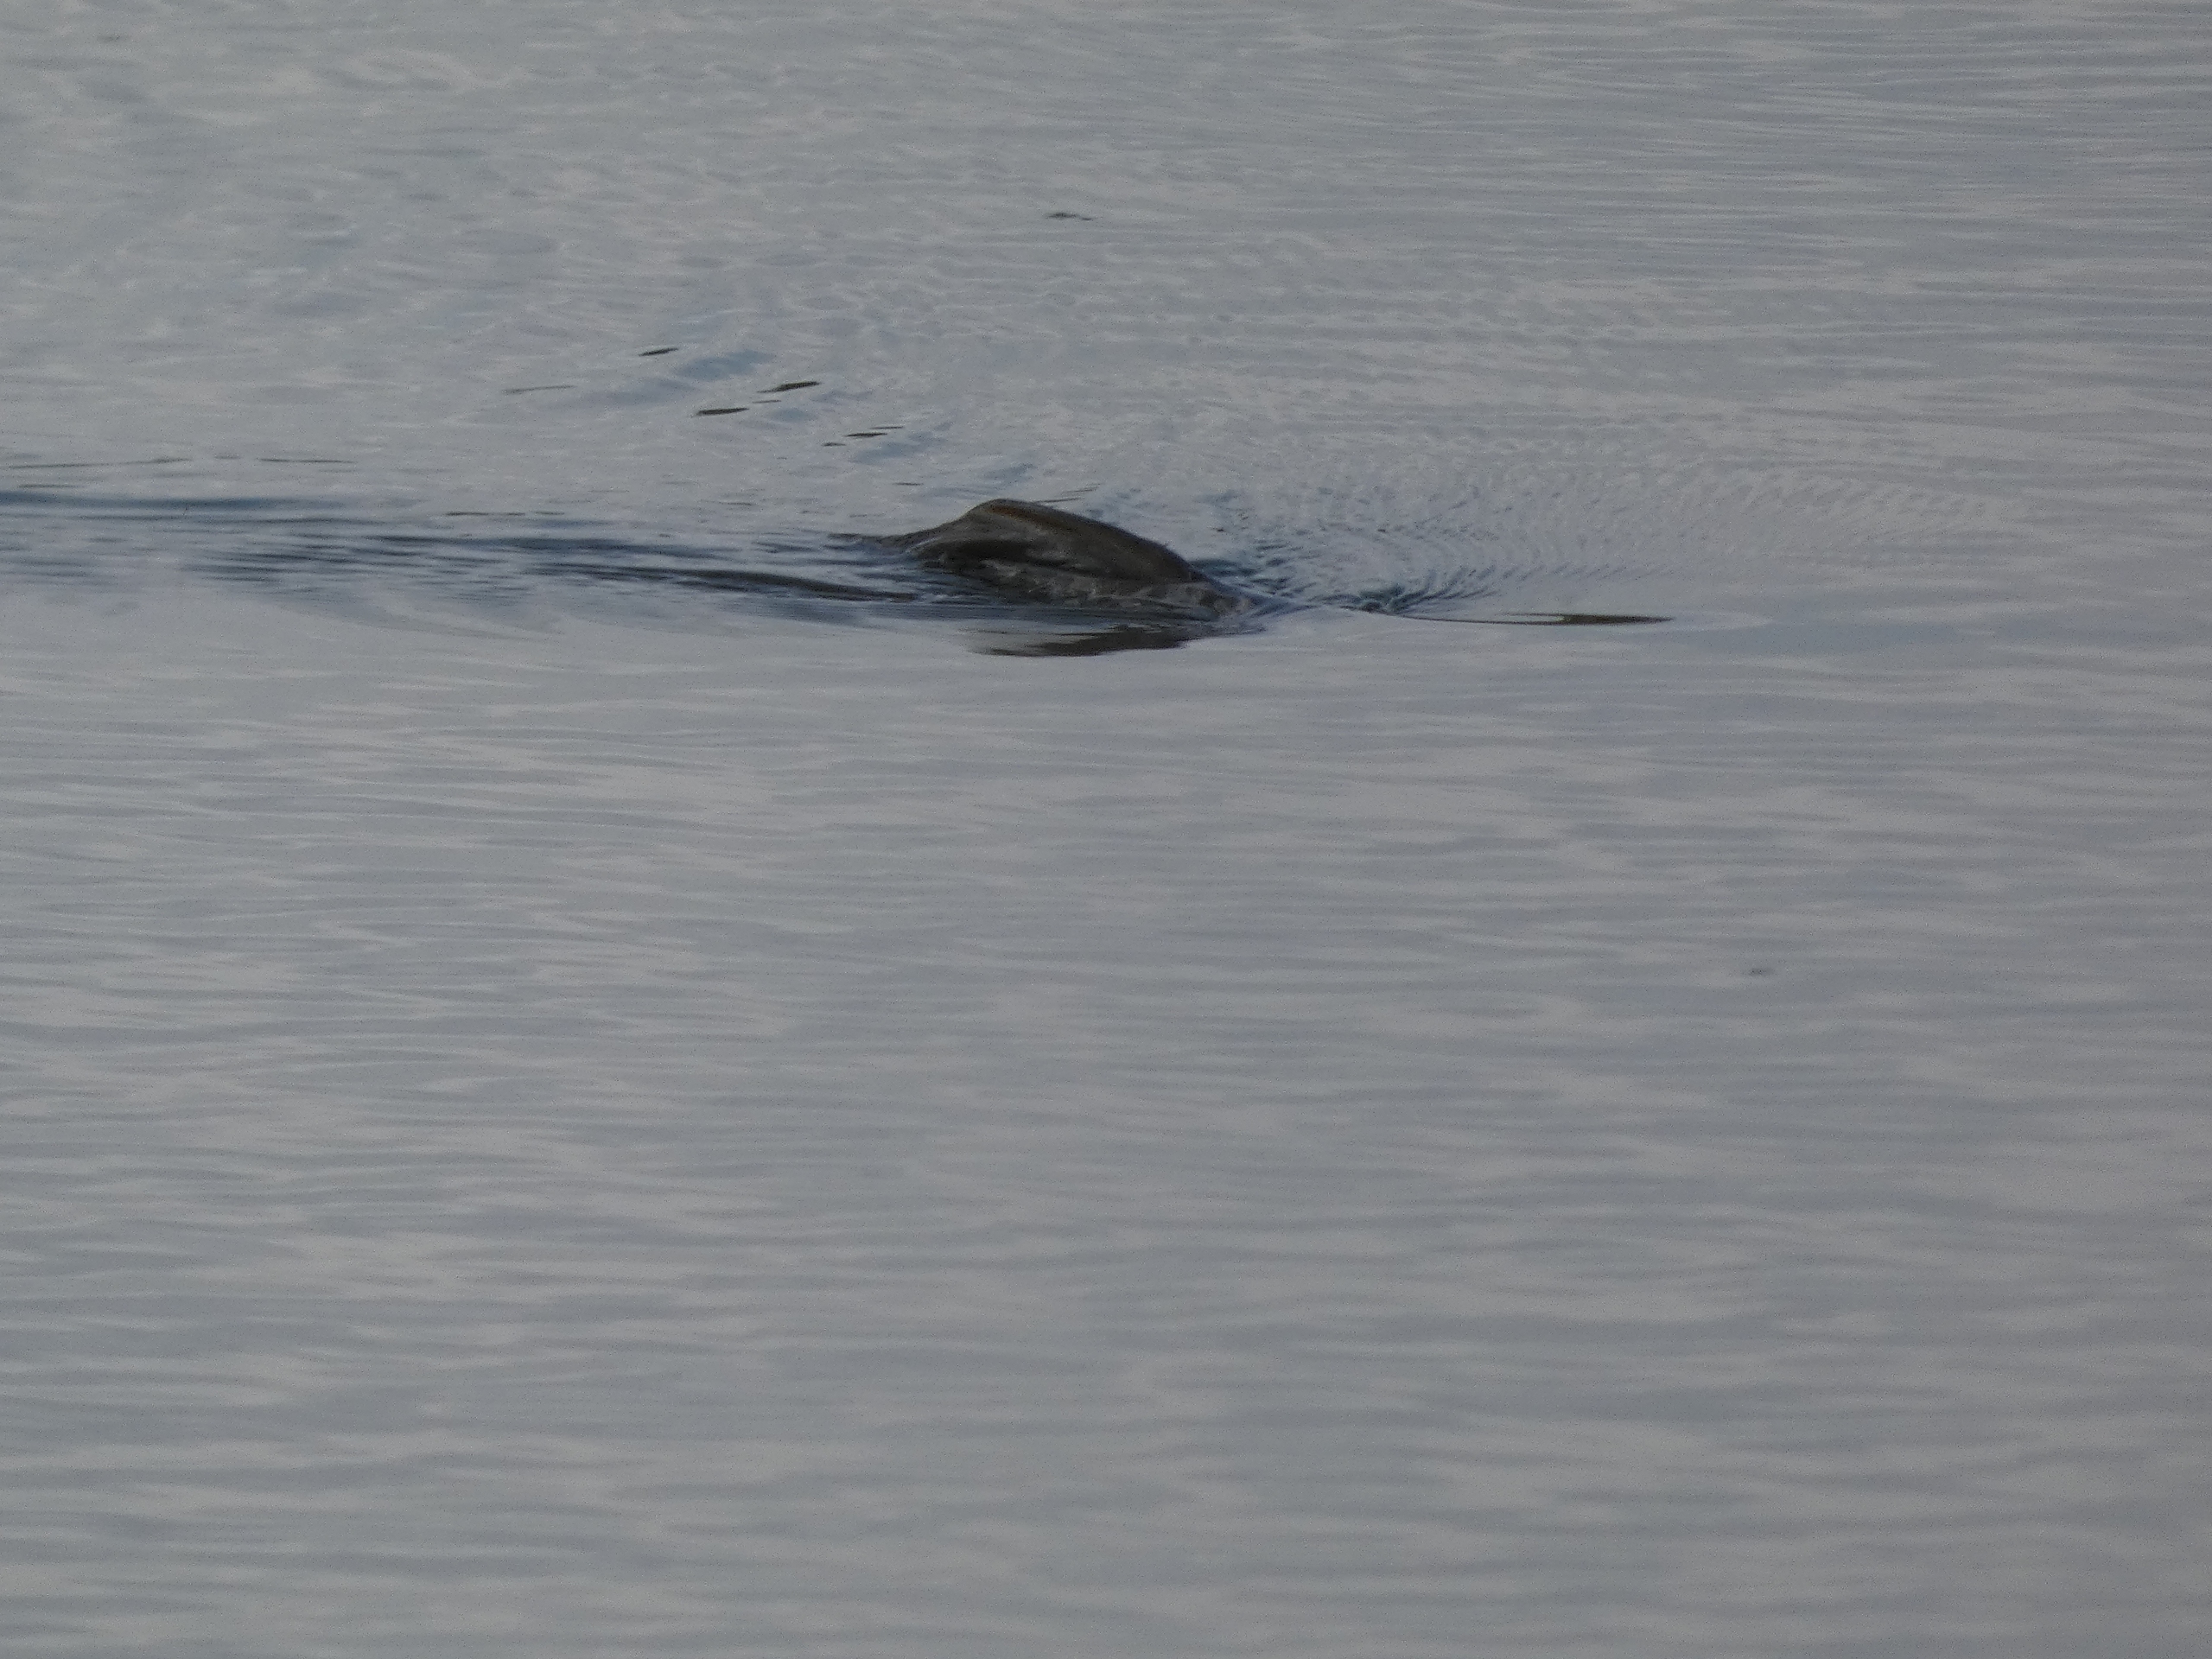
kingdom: Animalia
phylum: Chordata
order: Cypriniformes
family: Cyprinidae
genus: Cyprinus
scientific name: Cyprinus carpio
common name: Karpe
